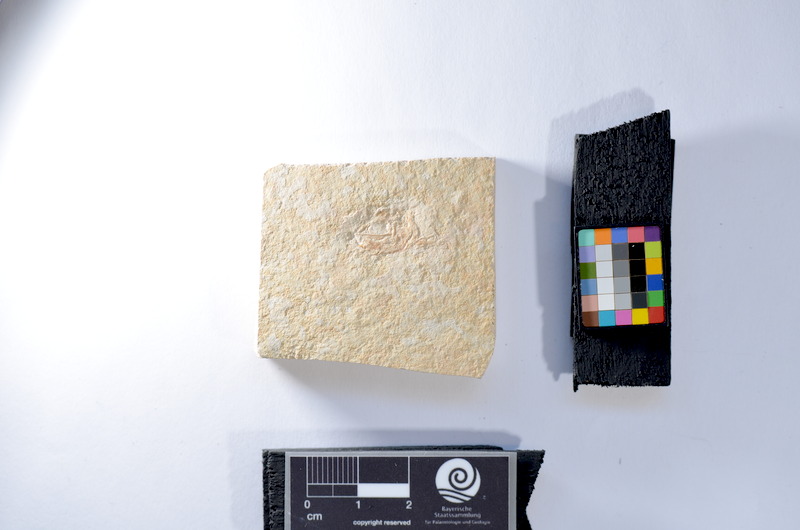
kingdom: Animalia
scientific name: Animalia
